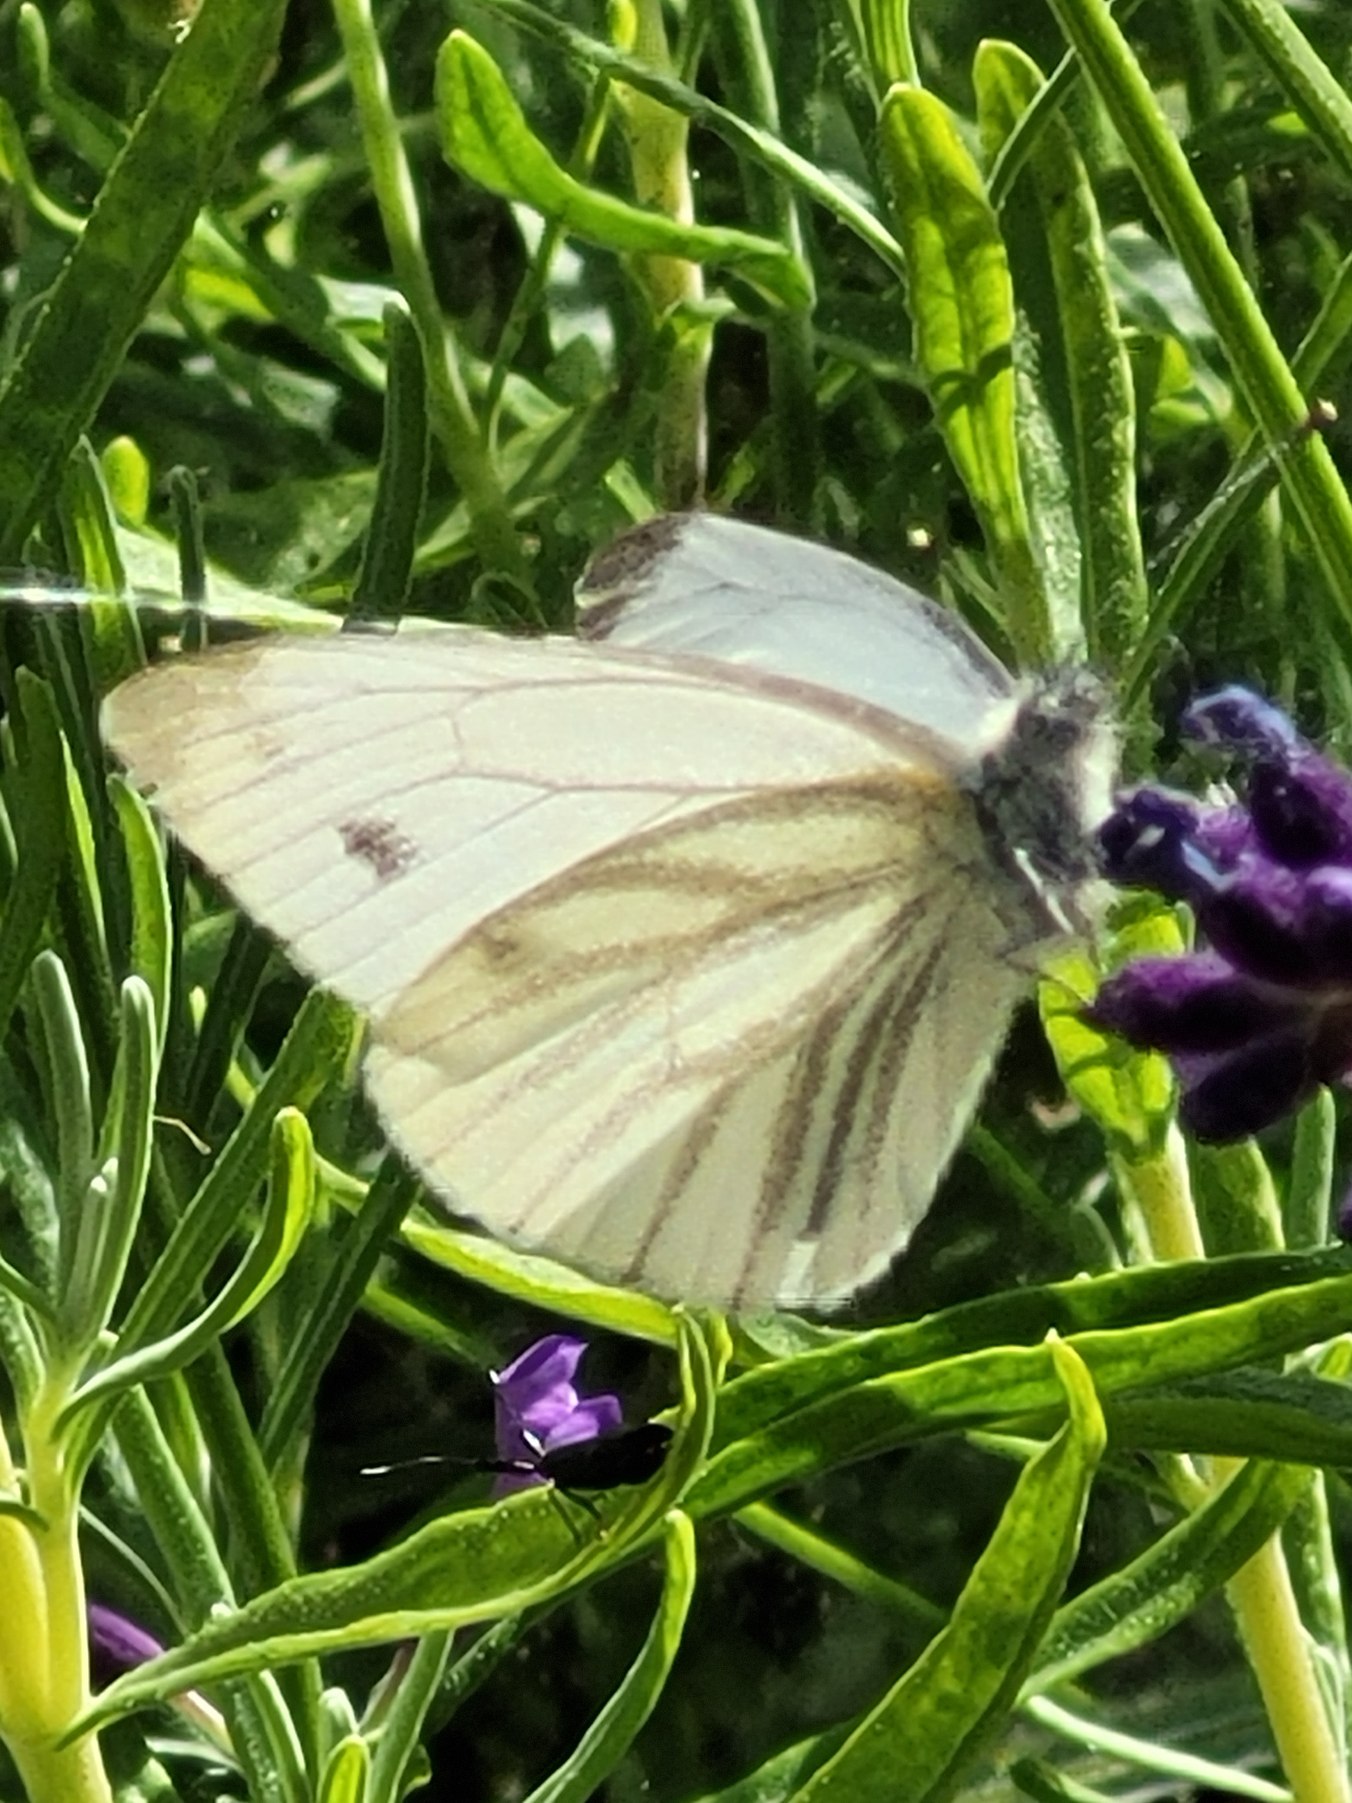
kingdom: Animalia
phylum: Arthropoda
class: Insecta
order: Lepidoptera
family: Pieridae
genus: Pieris
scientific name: Pieris napi
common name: Grønåret kålsommerfugl
